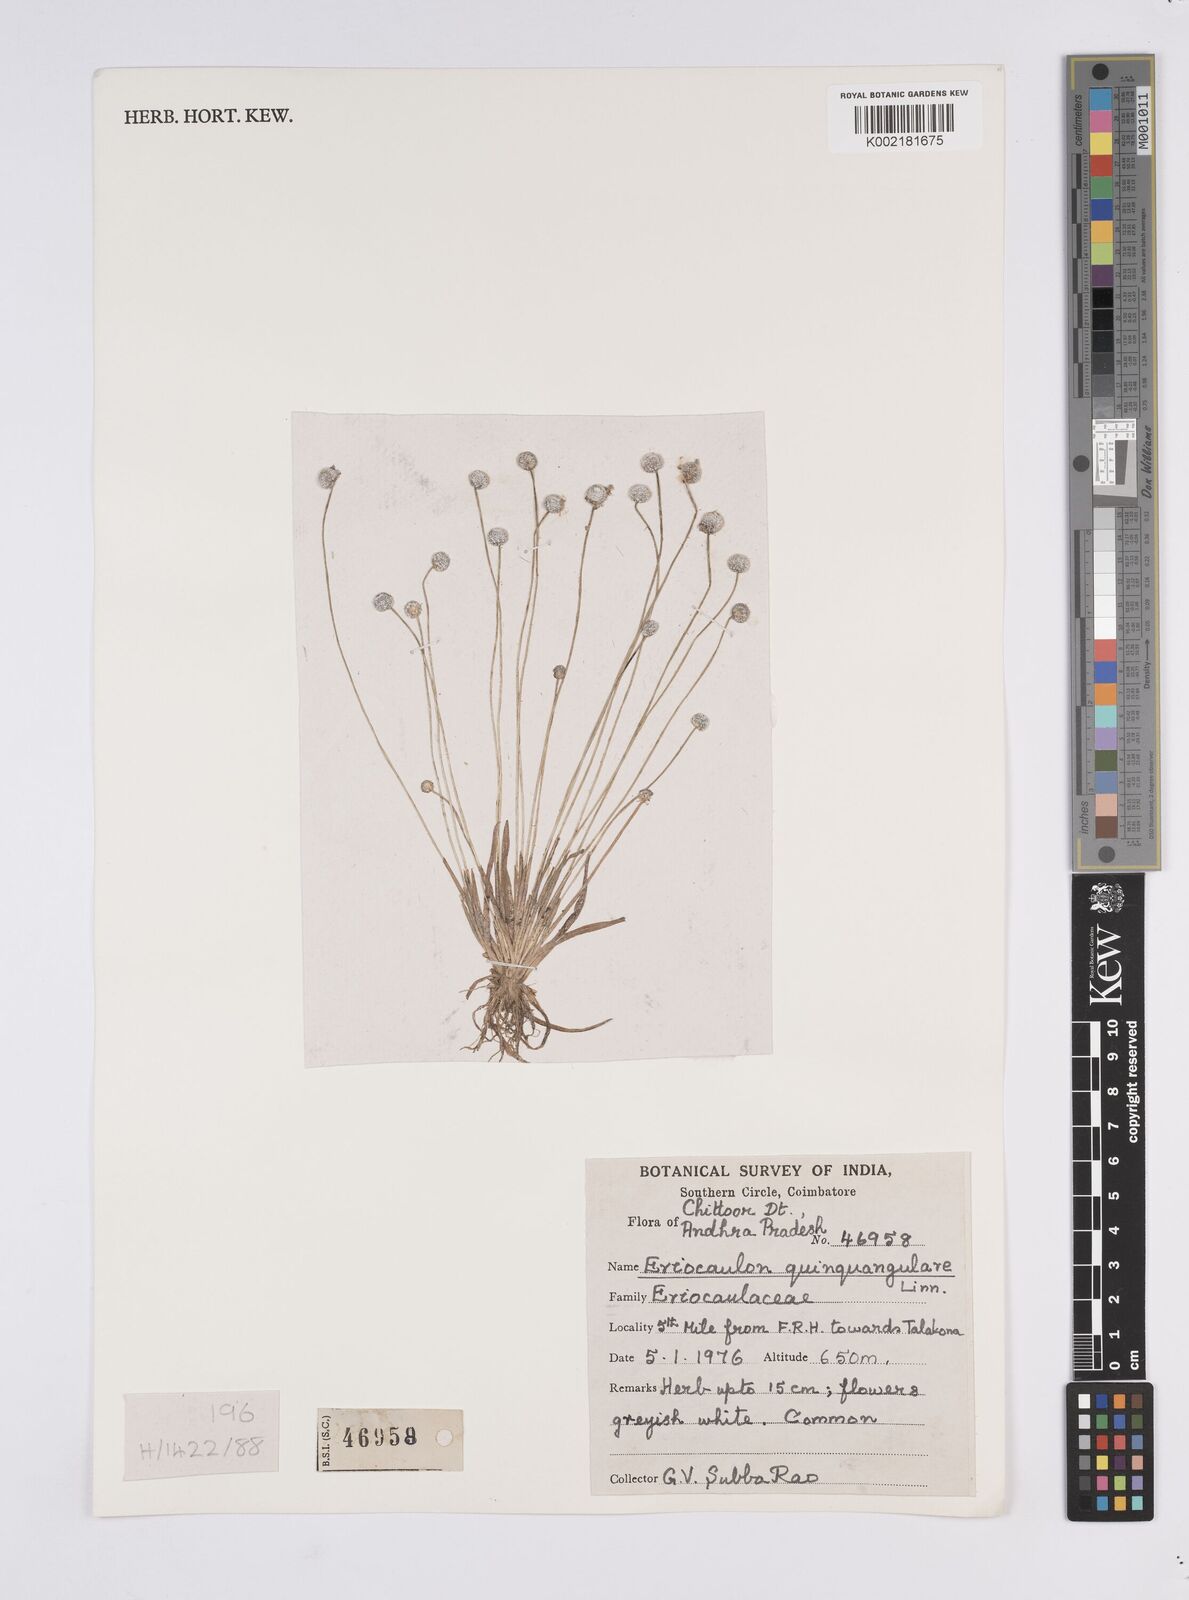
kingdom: Plantae
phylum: Tracheophyta
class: Liliopsida
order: Poales
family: Eriocaulaceae
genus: Eriocaulon
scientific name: Eriocaulon quinquangulare
